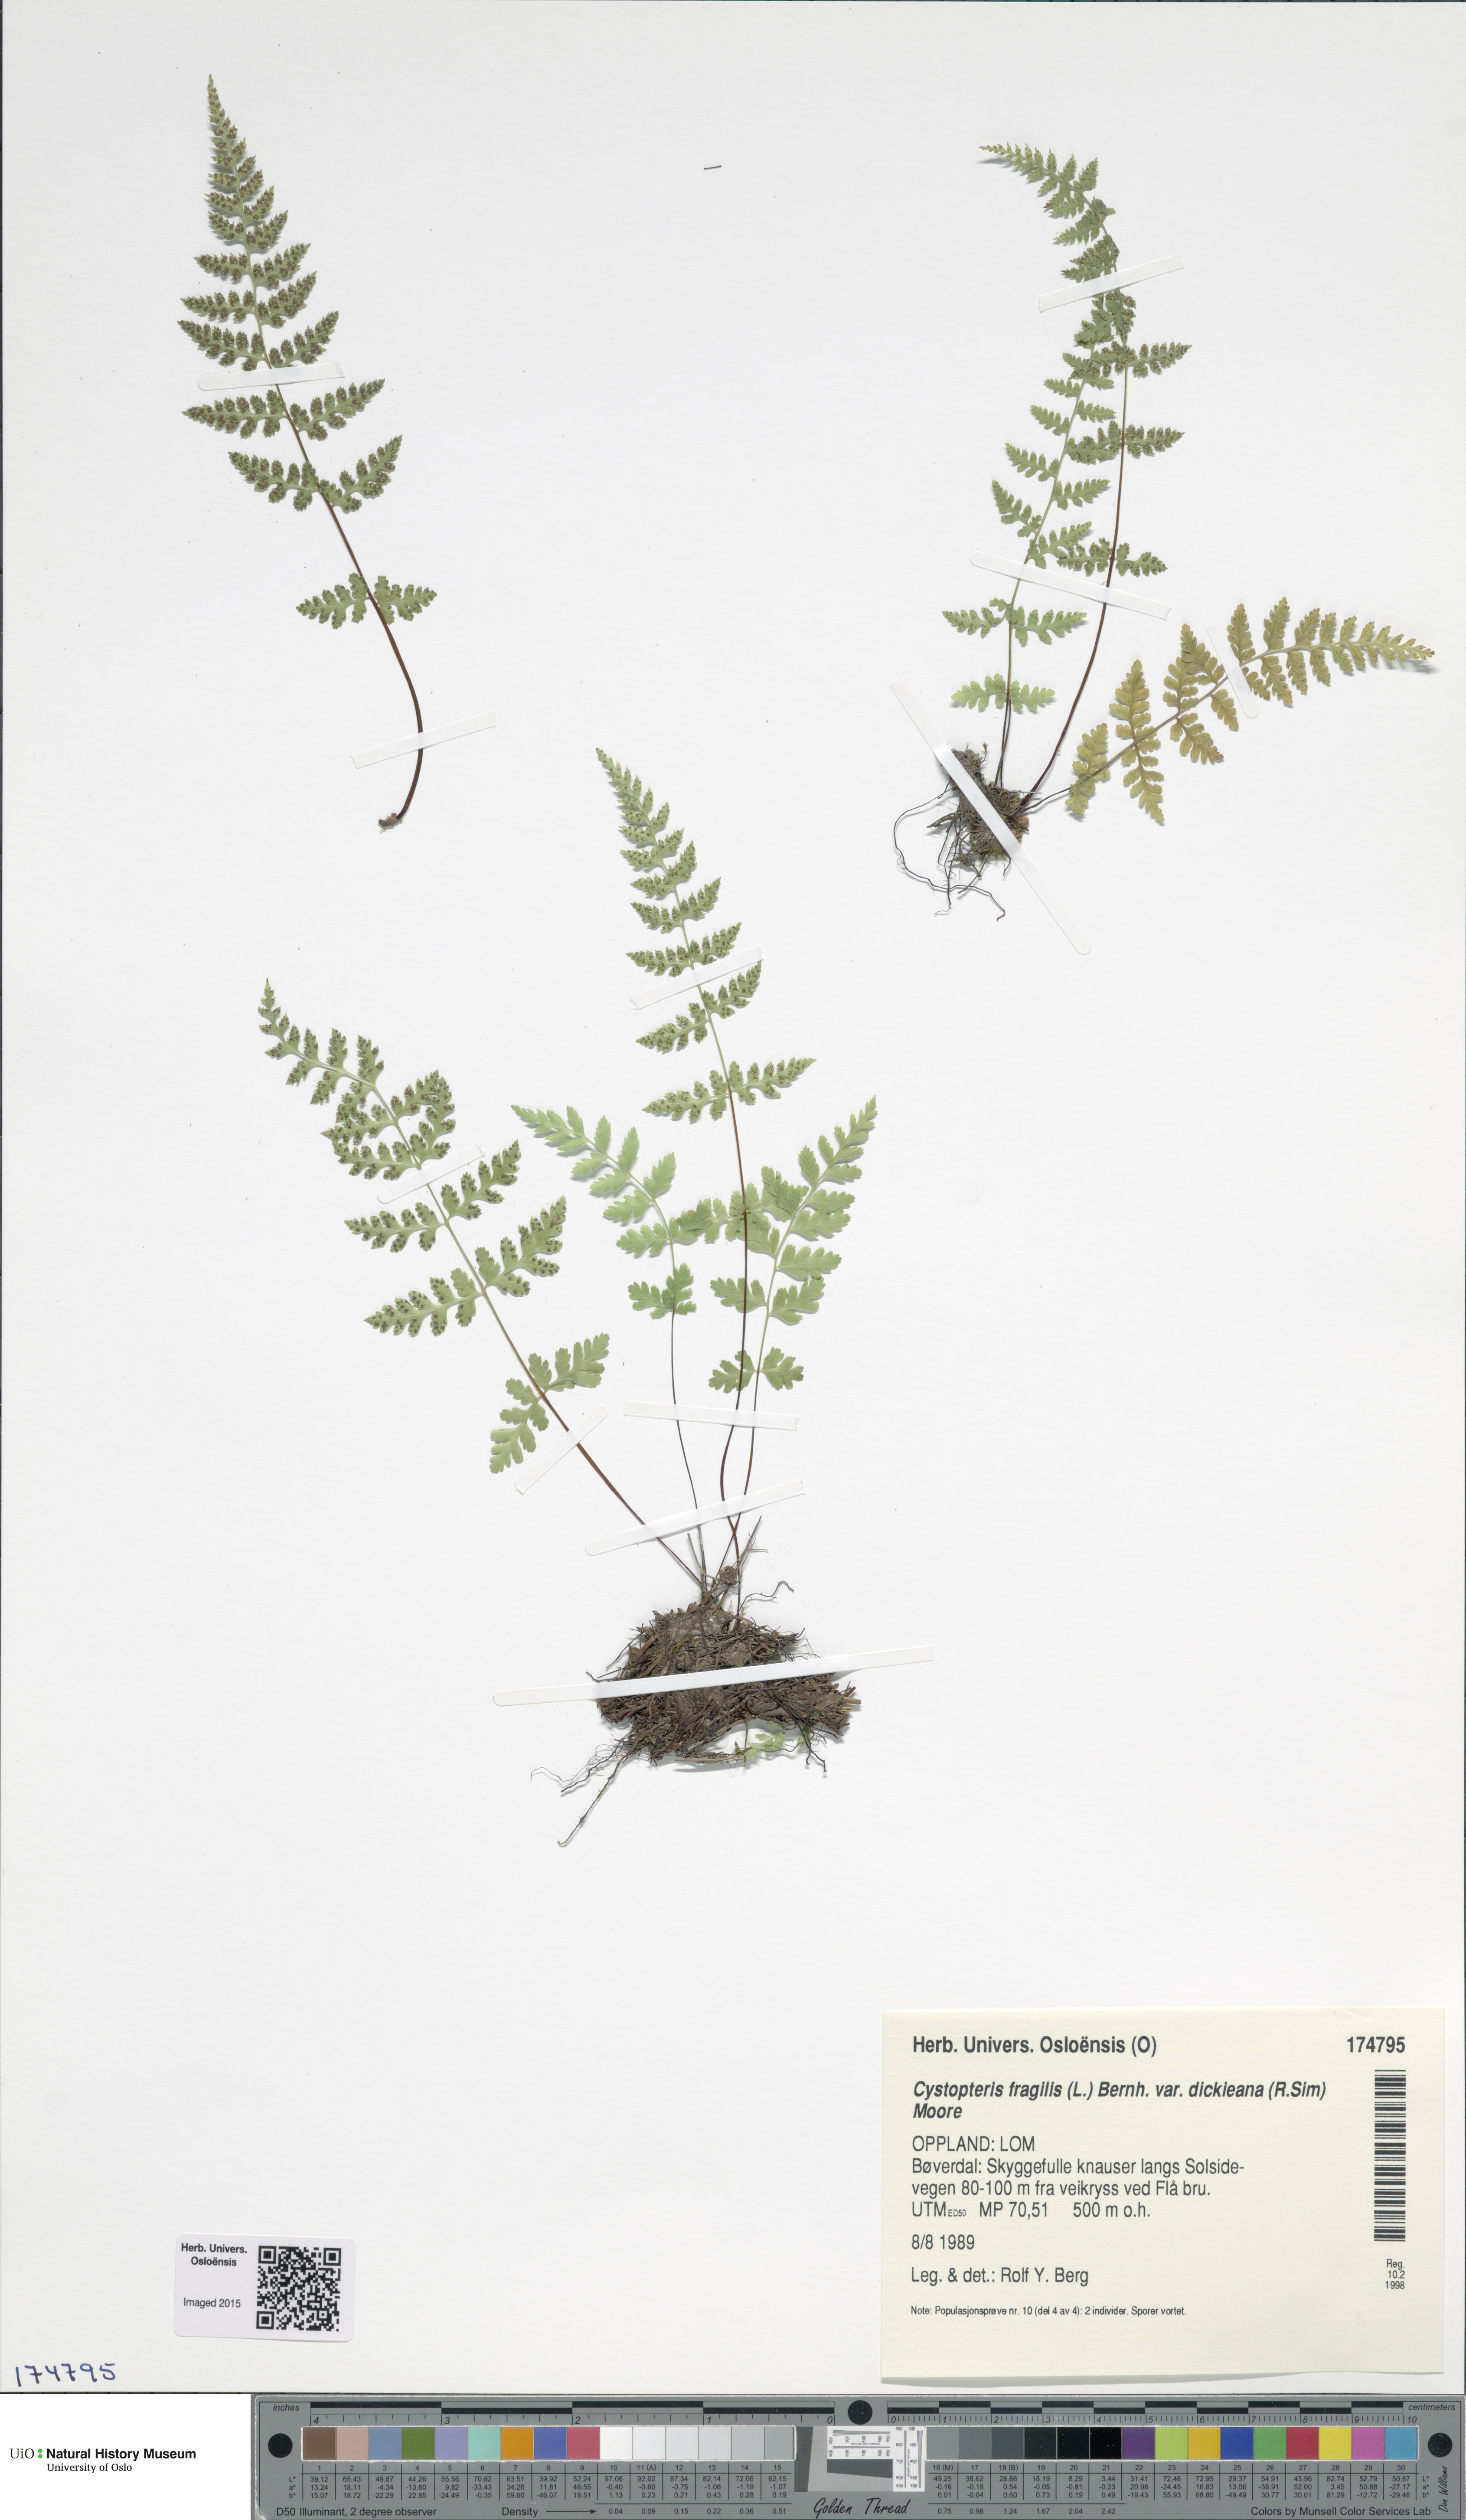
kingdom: Plantae
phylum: Tracheophyta
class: Polypodiopsida
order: Polypodiales
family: Cystopteridaceae
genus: Cystopteris
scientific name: Cystopteris dickieana
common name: Dickie's bladder-fern
